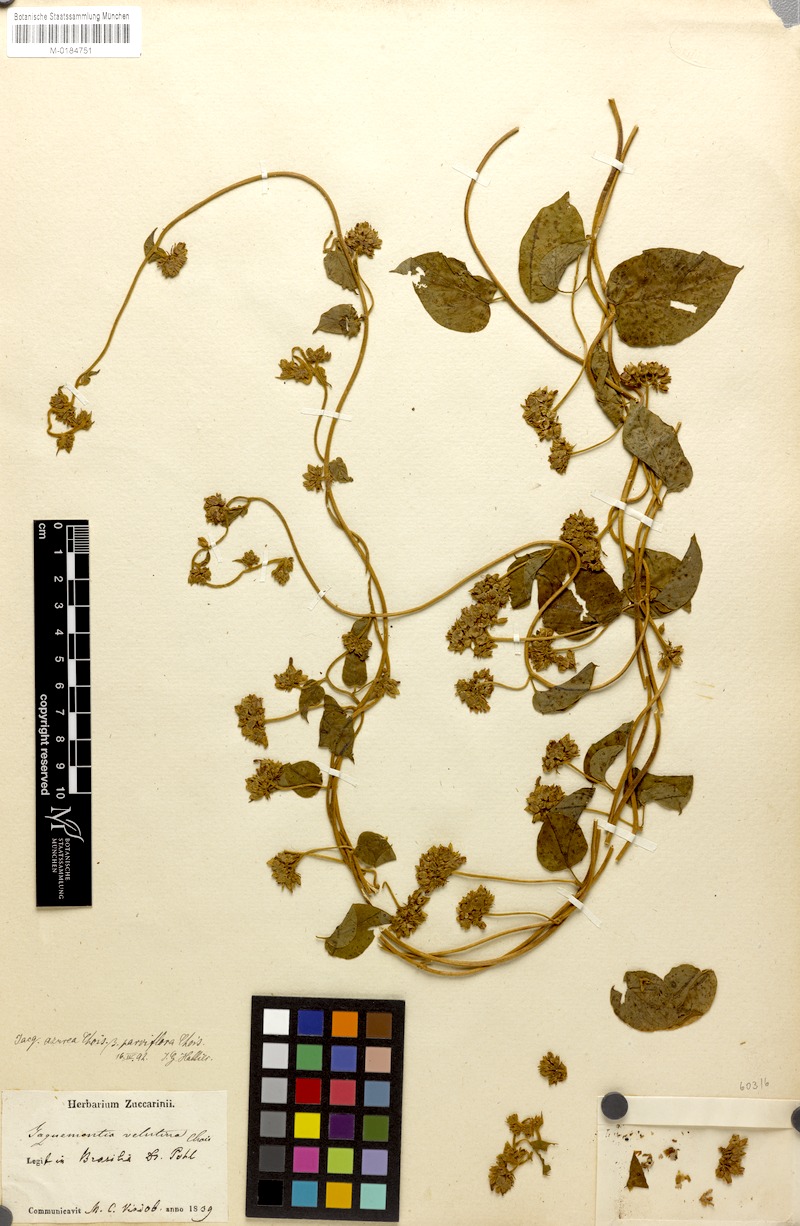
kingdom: Plantae
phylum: Tracheophyta
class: Magnoliopsida
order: Solanales
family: Convolvulaceae
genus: Jacquemontia
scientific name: Jacquemontia corymbulosa
